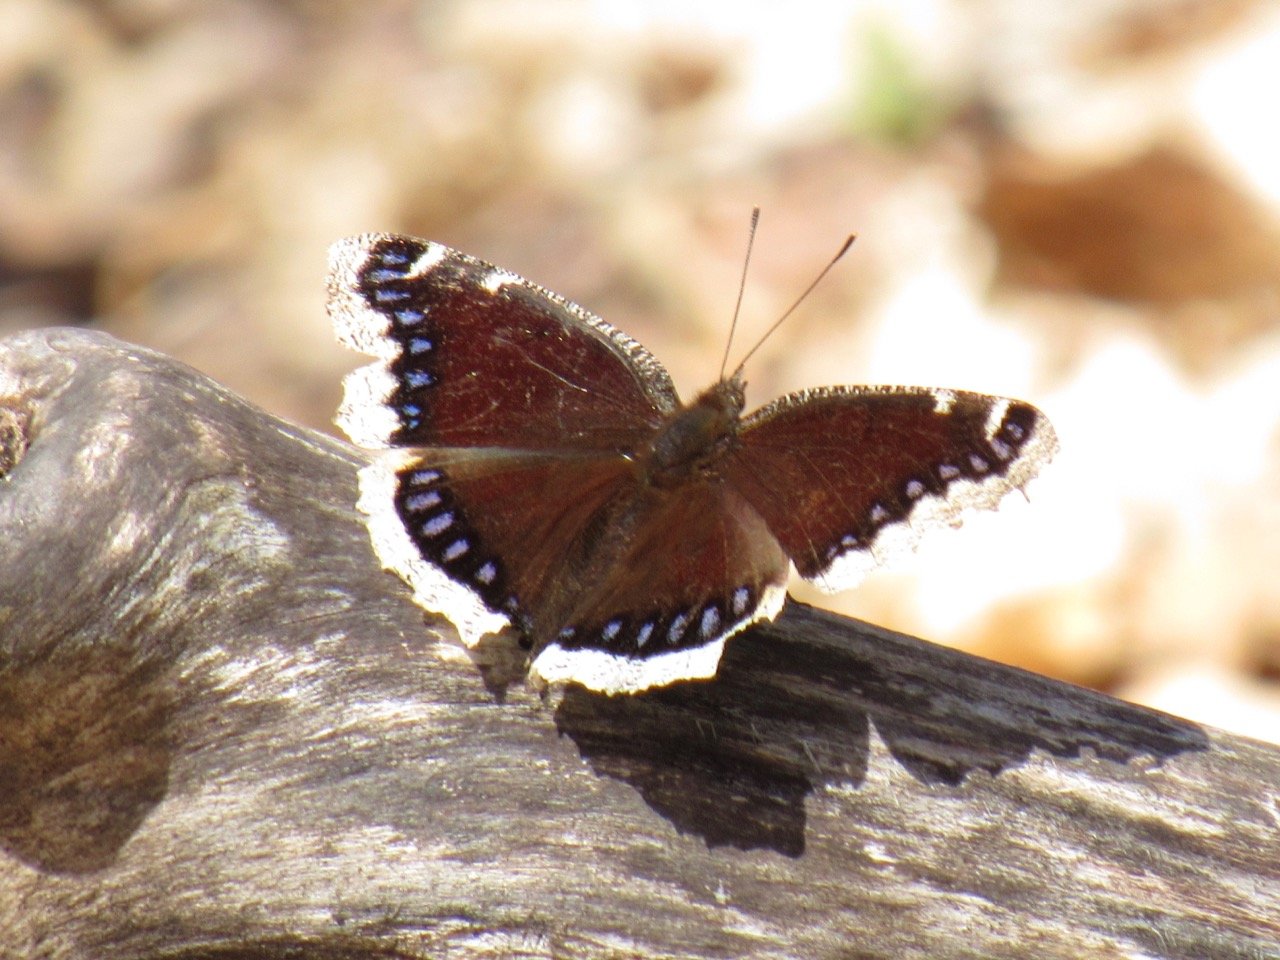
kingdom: Animalia
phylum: Arthropoda
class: Insecta
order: Lepidoptera
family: Nymphalidae
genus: Nymphalis
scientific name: Nymphalis antiopa
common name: Mourning Cloak
